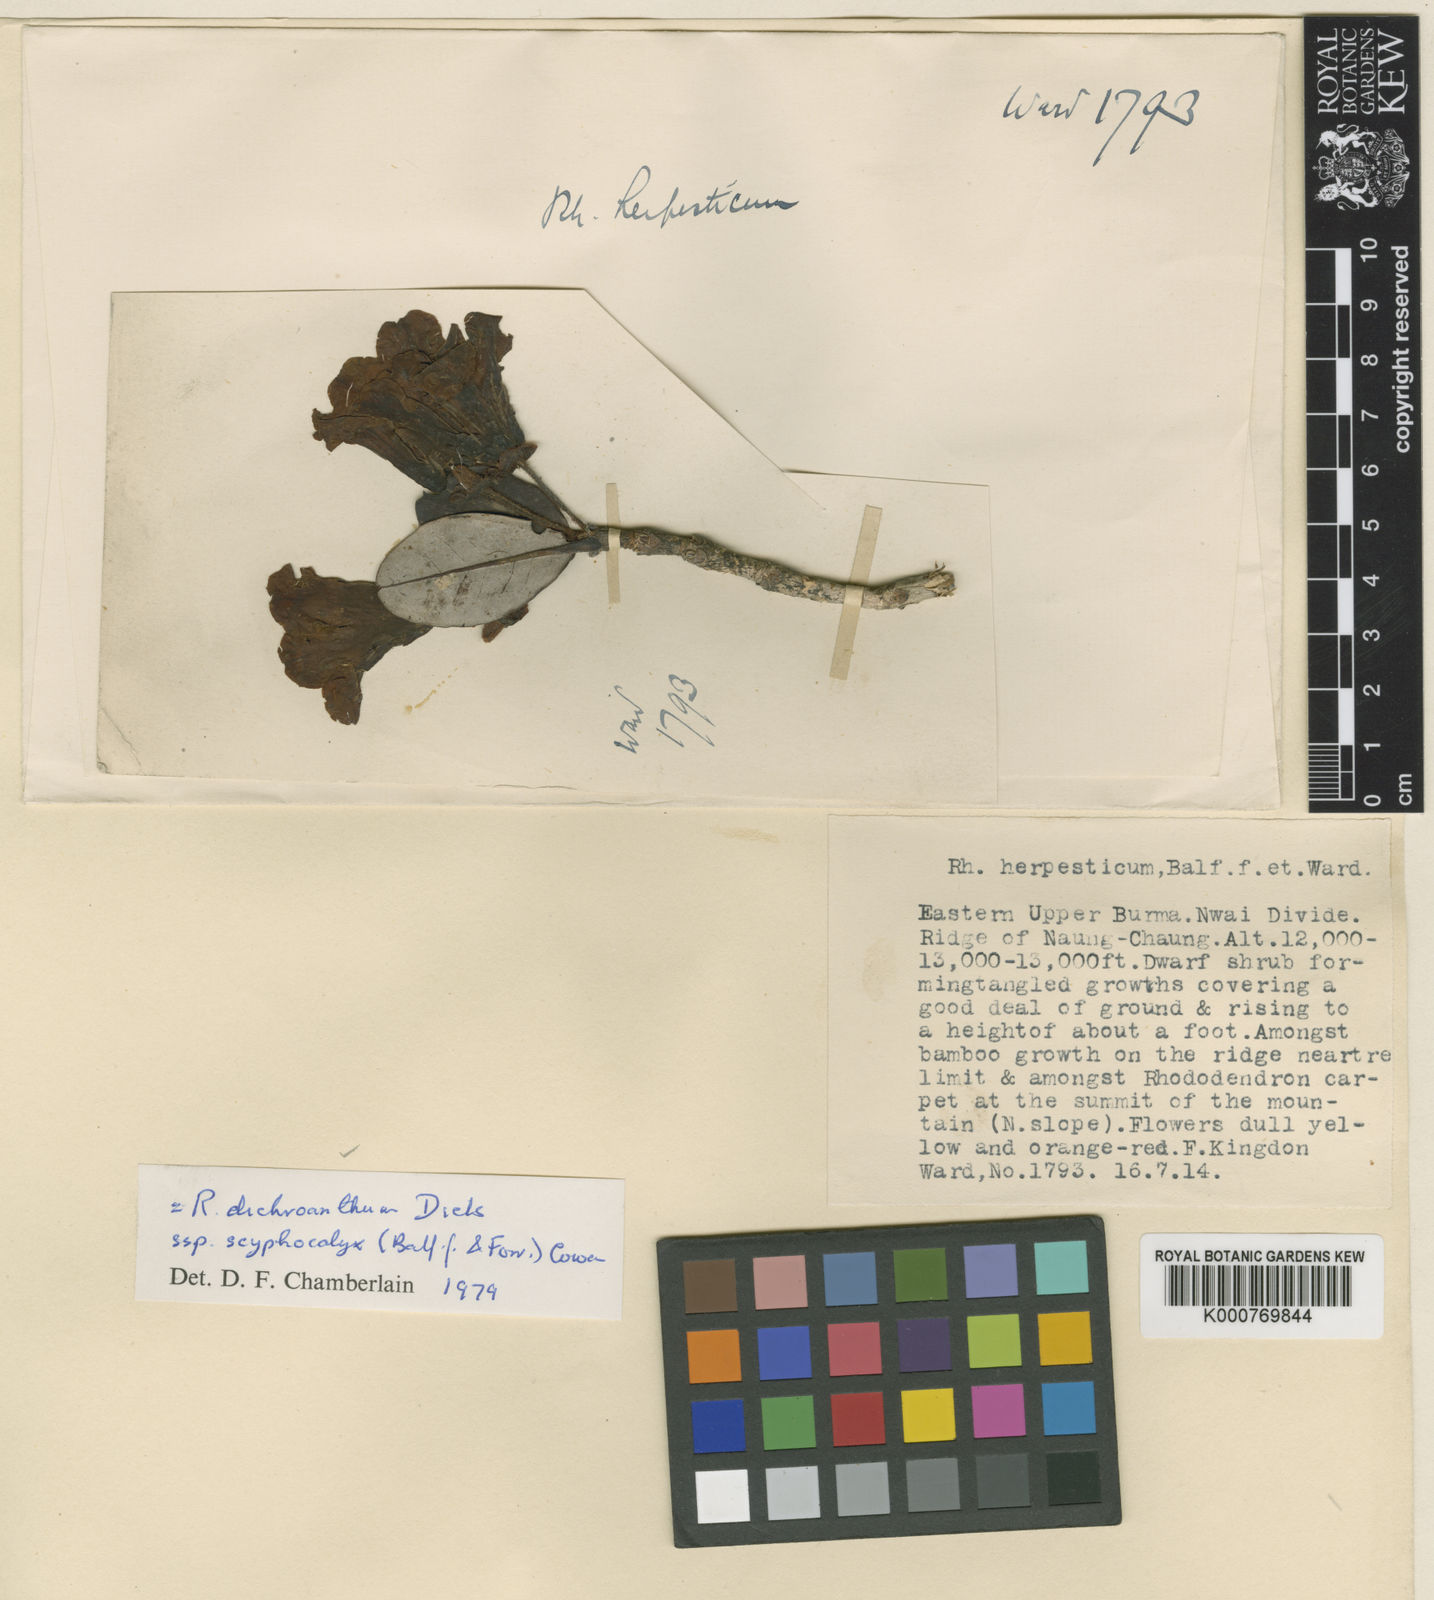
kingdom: Plantae
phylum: Tracheophyta
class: Magnoliopsida
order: Ericales
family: Ericaceae
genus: Rhododendron
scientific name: Rhododendron dichroanthum
